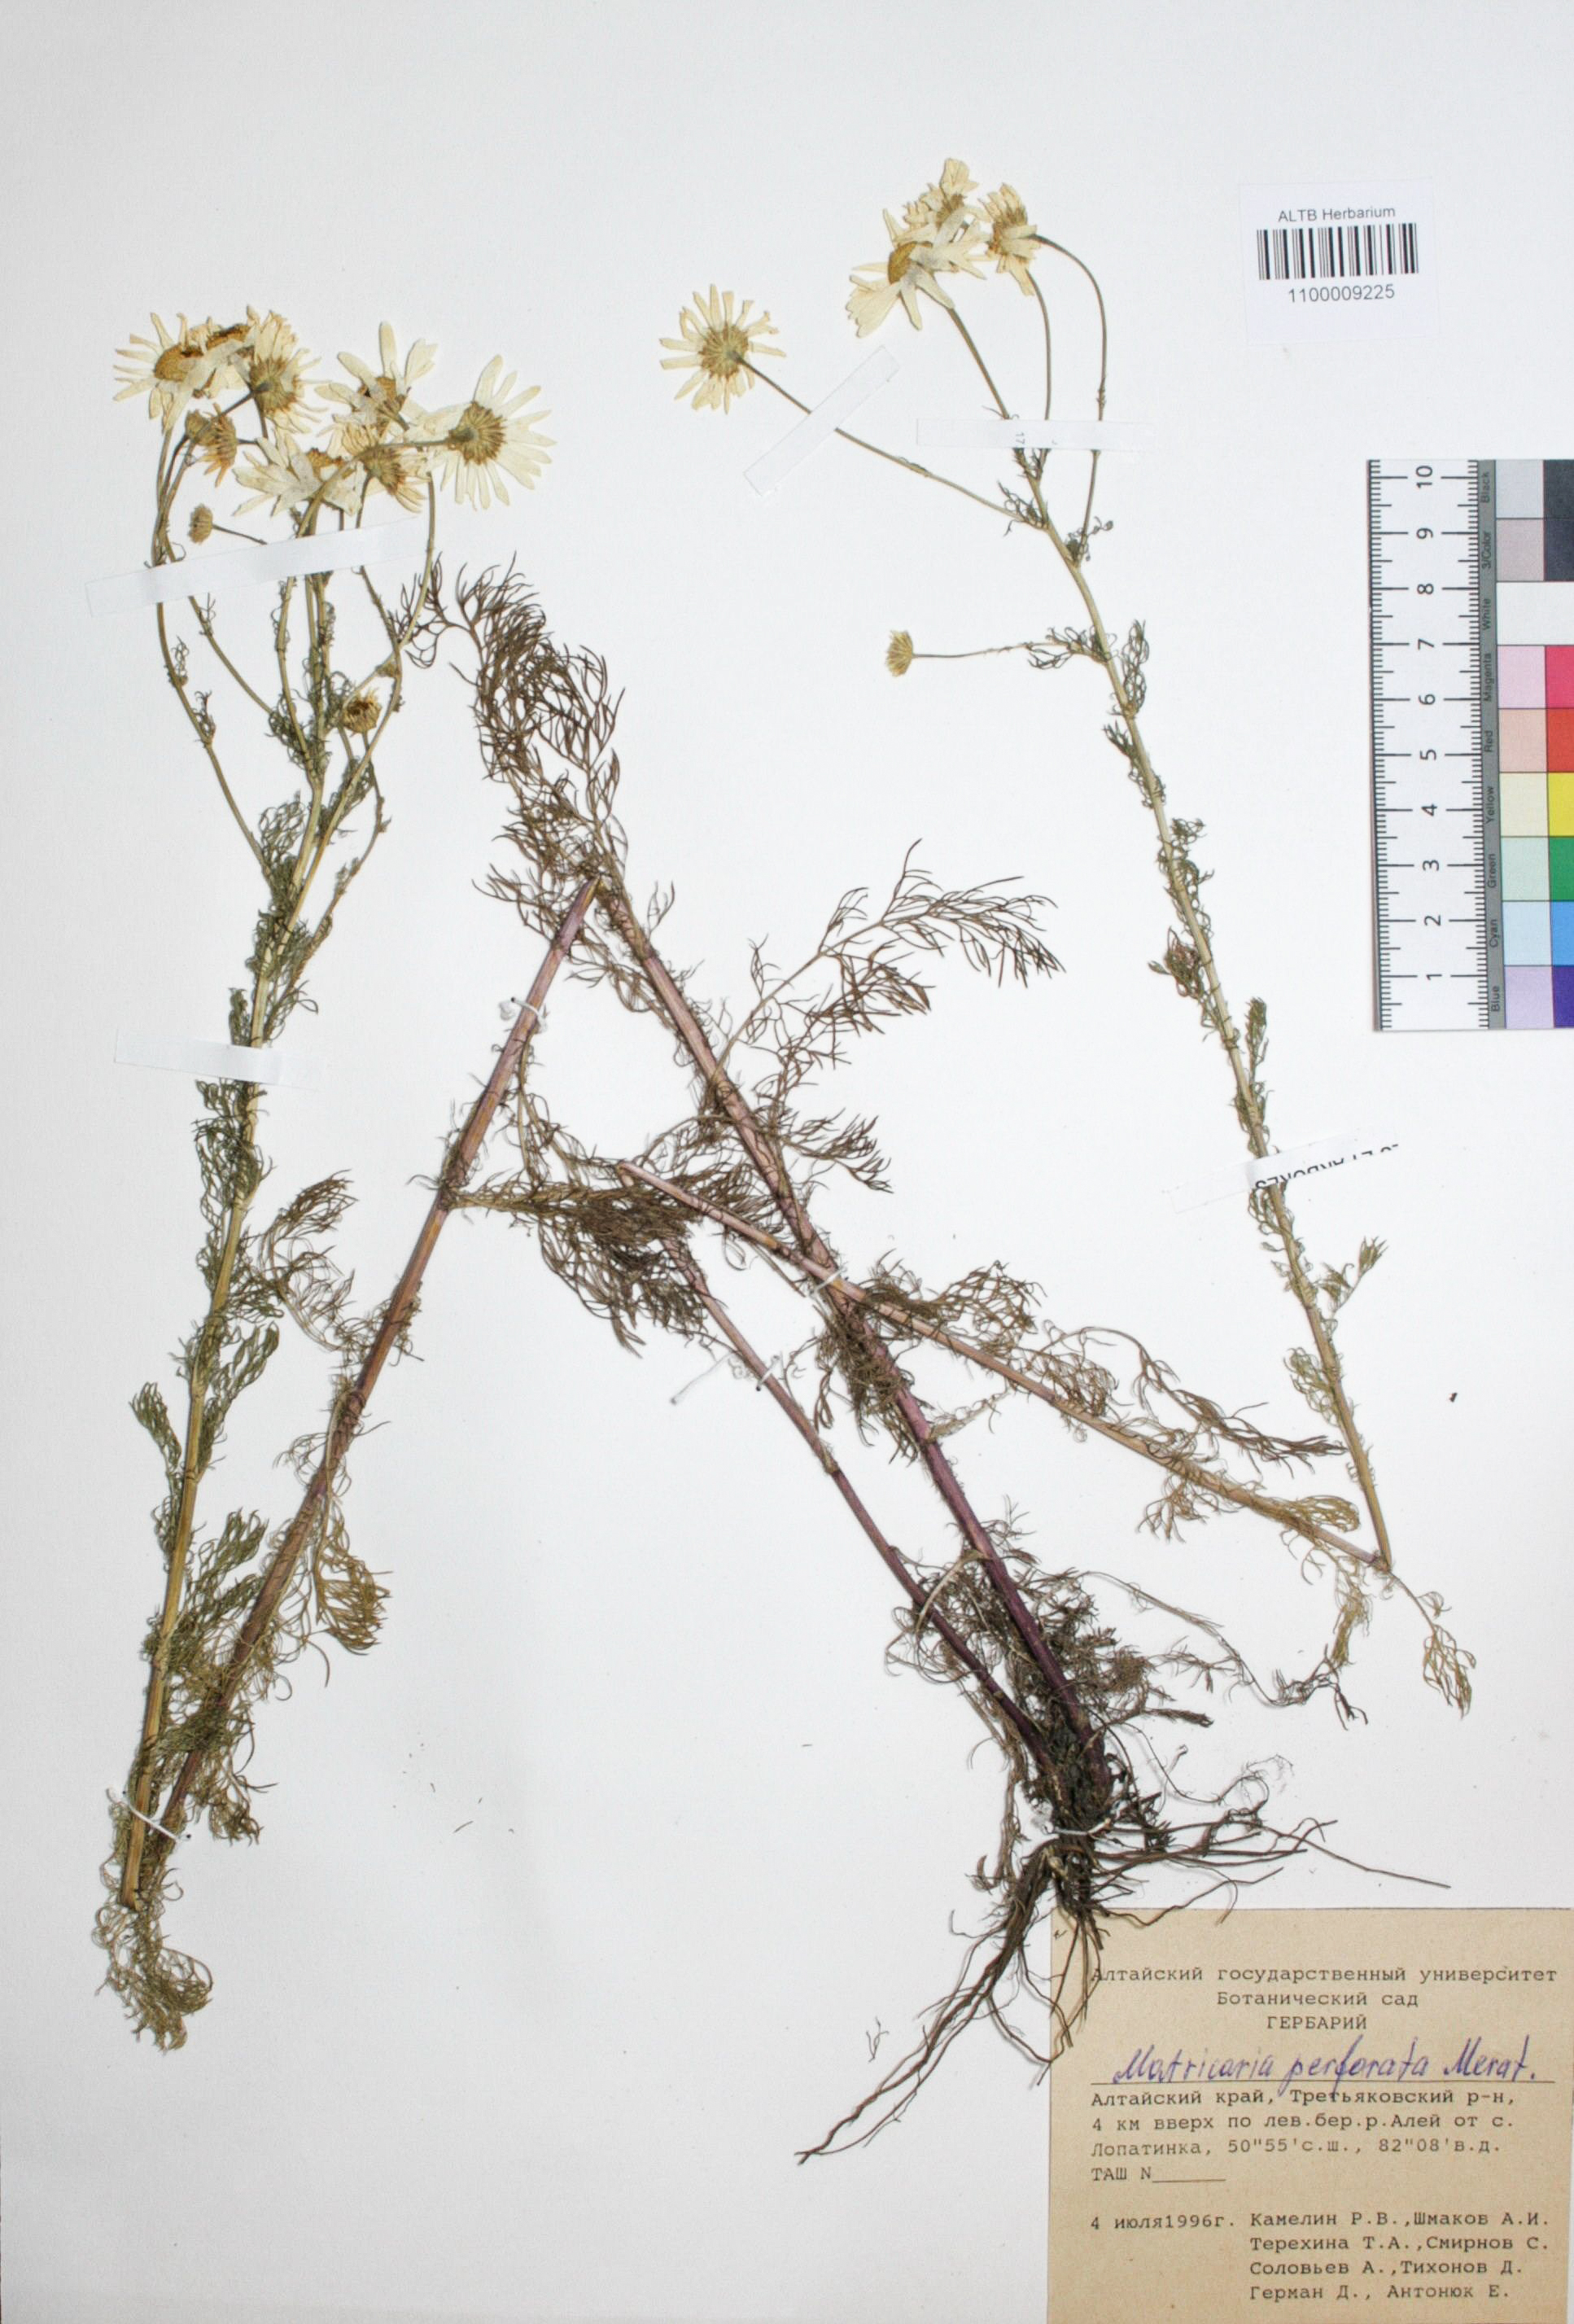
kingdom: Plantae
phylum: Tracheophyta
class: Magnoliopsida
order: Asterales
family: Asteraceae
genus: Tripleurospermum
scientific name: Tripleurospermum inodorum
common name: Scentless mayweed
